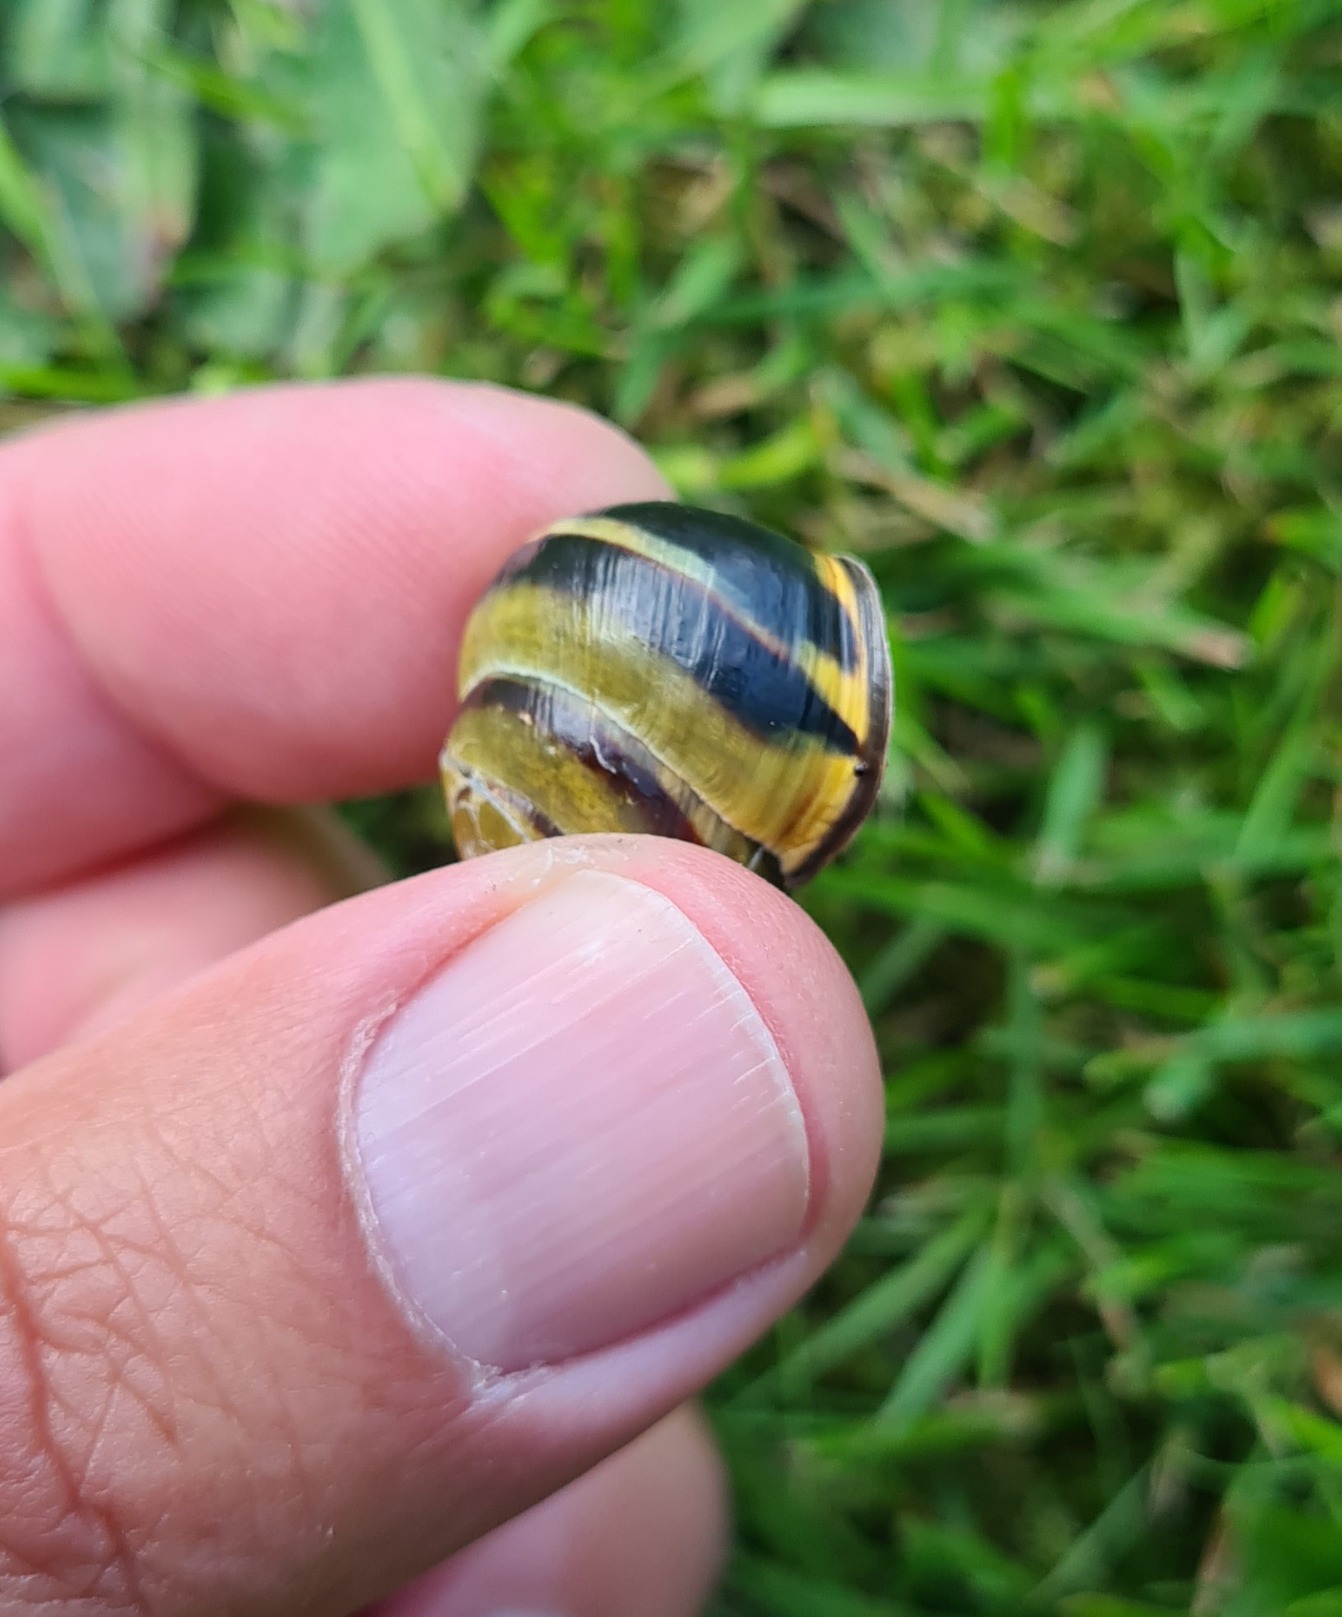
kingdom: Animalia
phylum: Mollusca
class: Gastropoda
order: Stylommatophora
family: Helicidae
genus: Cepaea
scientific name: Cepaea nemoralis
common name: Lundsnegl
